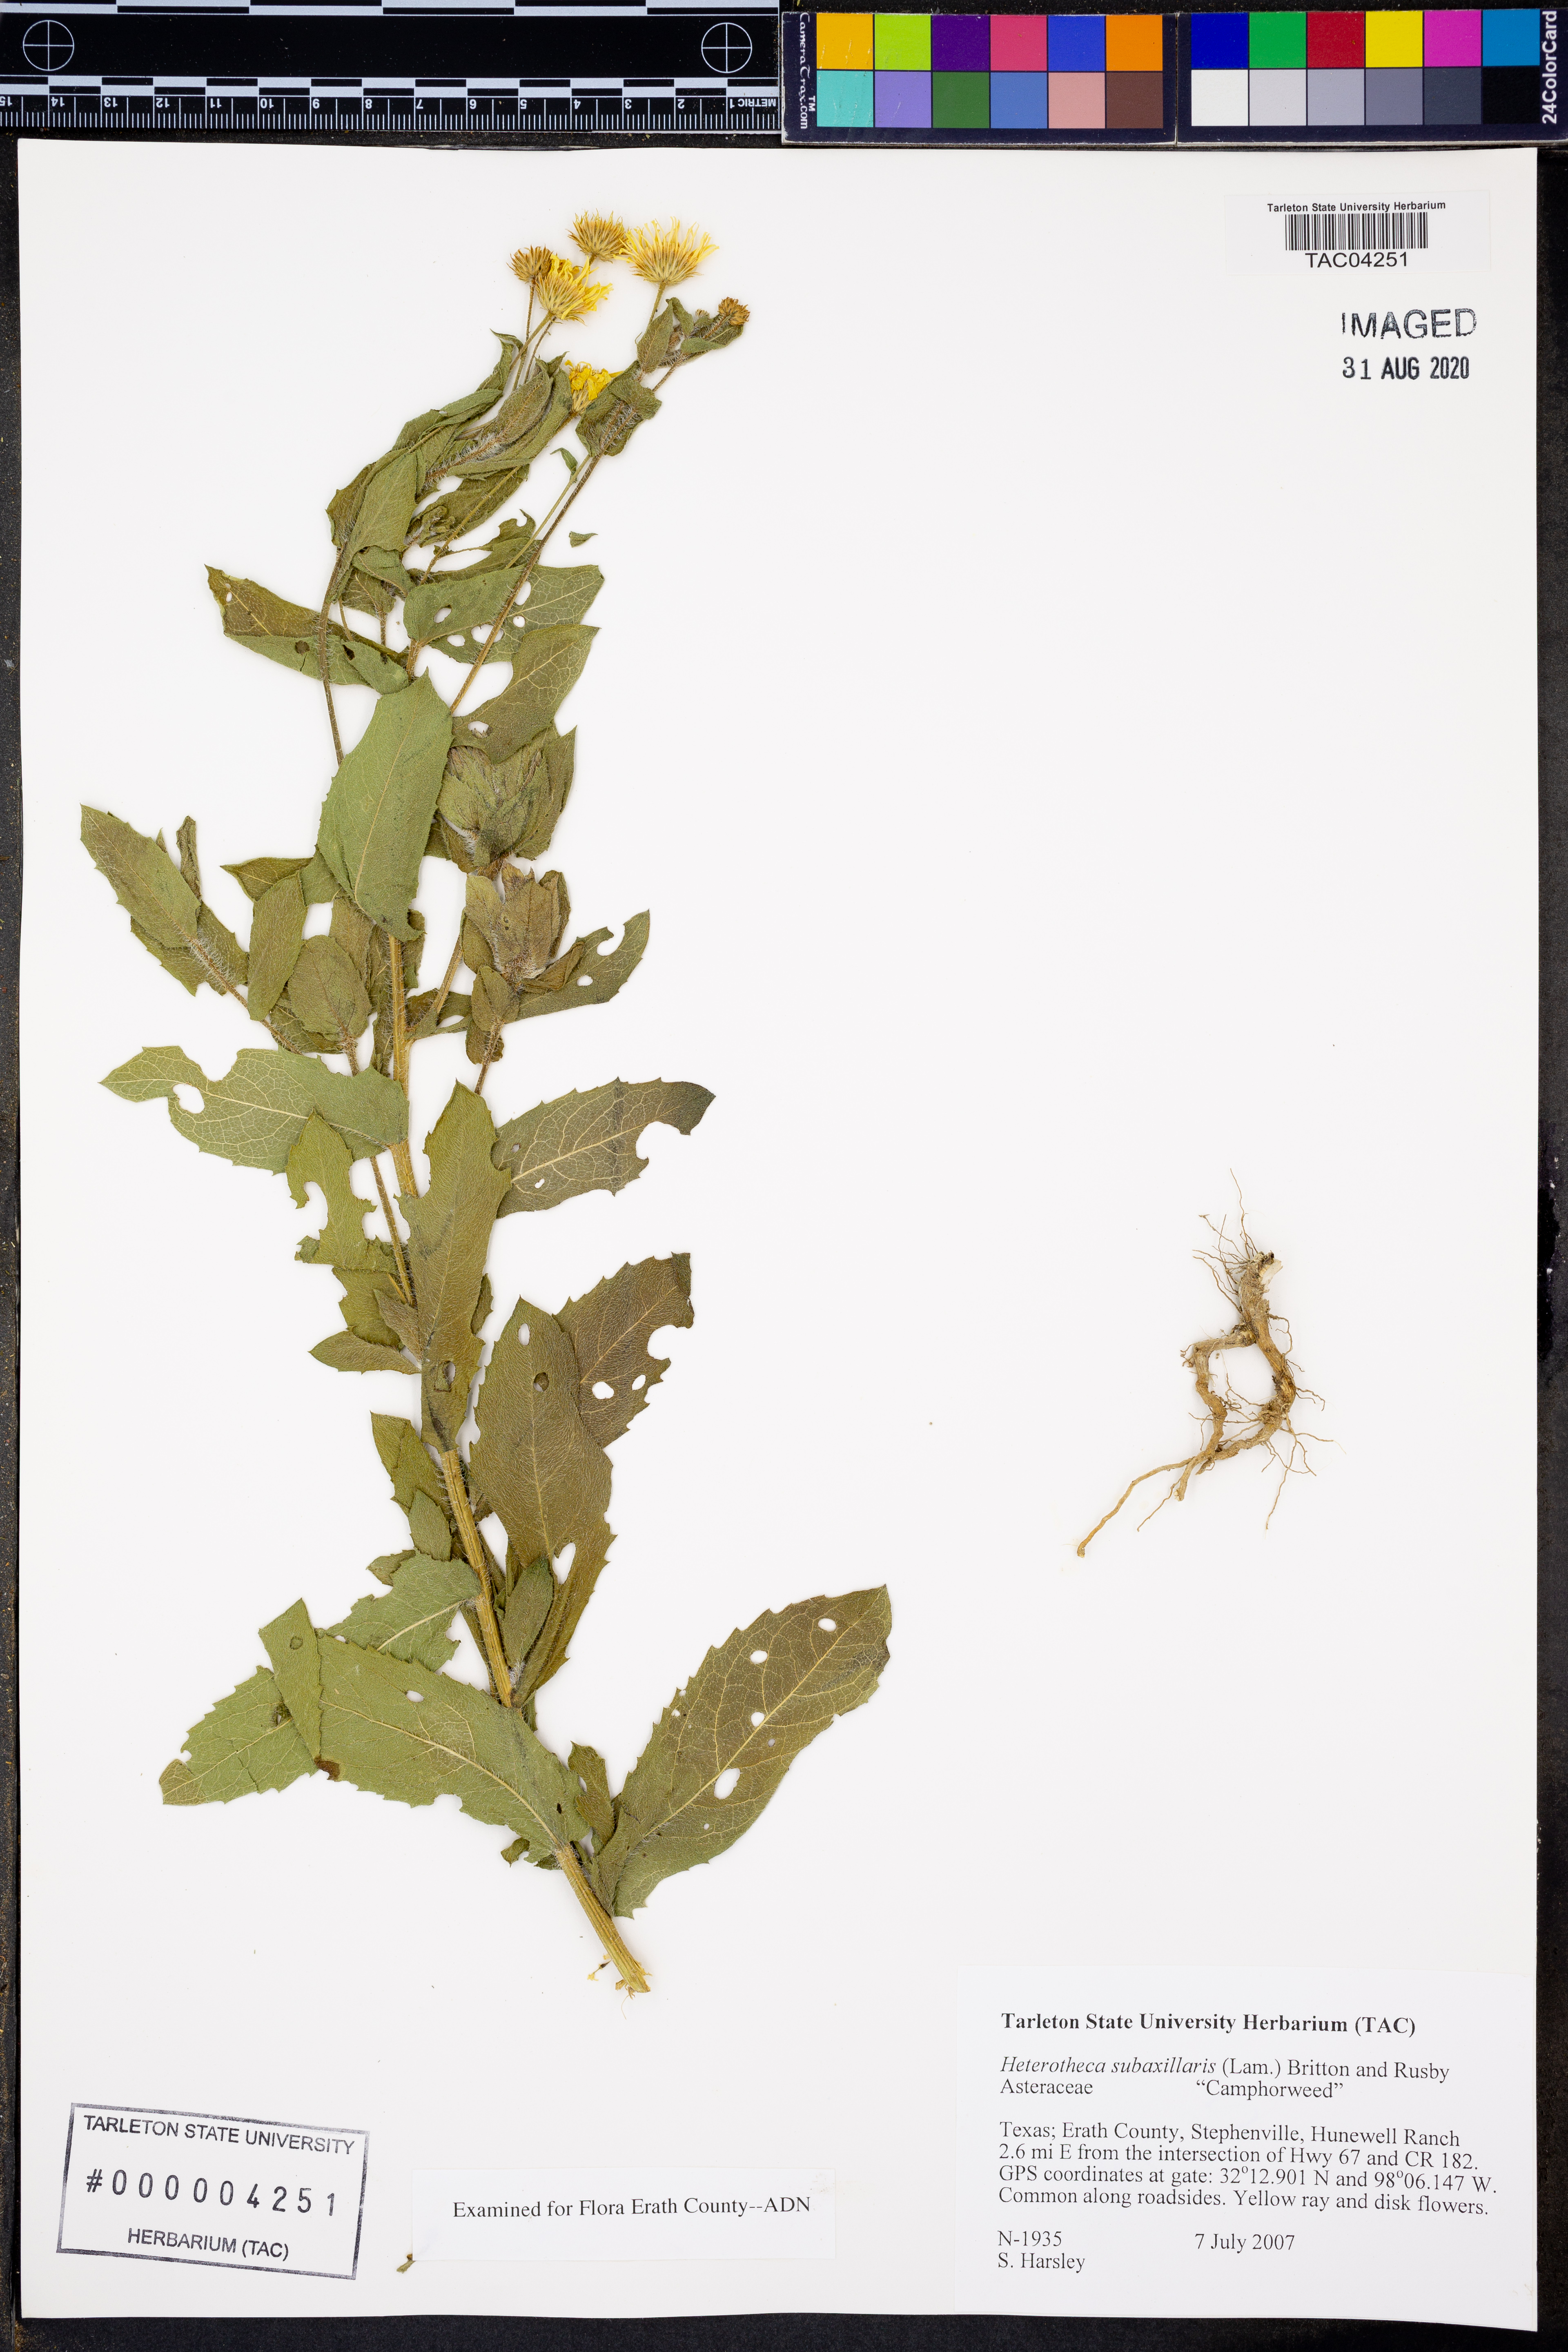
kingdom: Plantae
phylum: Tracheophyta
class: Magnoliopsida
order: Asterales
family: Asteraceae
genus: Heterotheca
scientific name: Heterotheca subaxillaris
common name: Camphorweed
